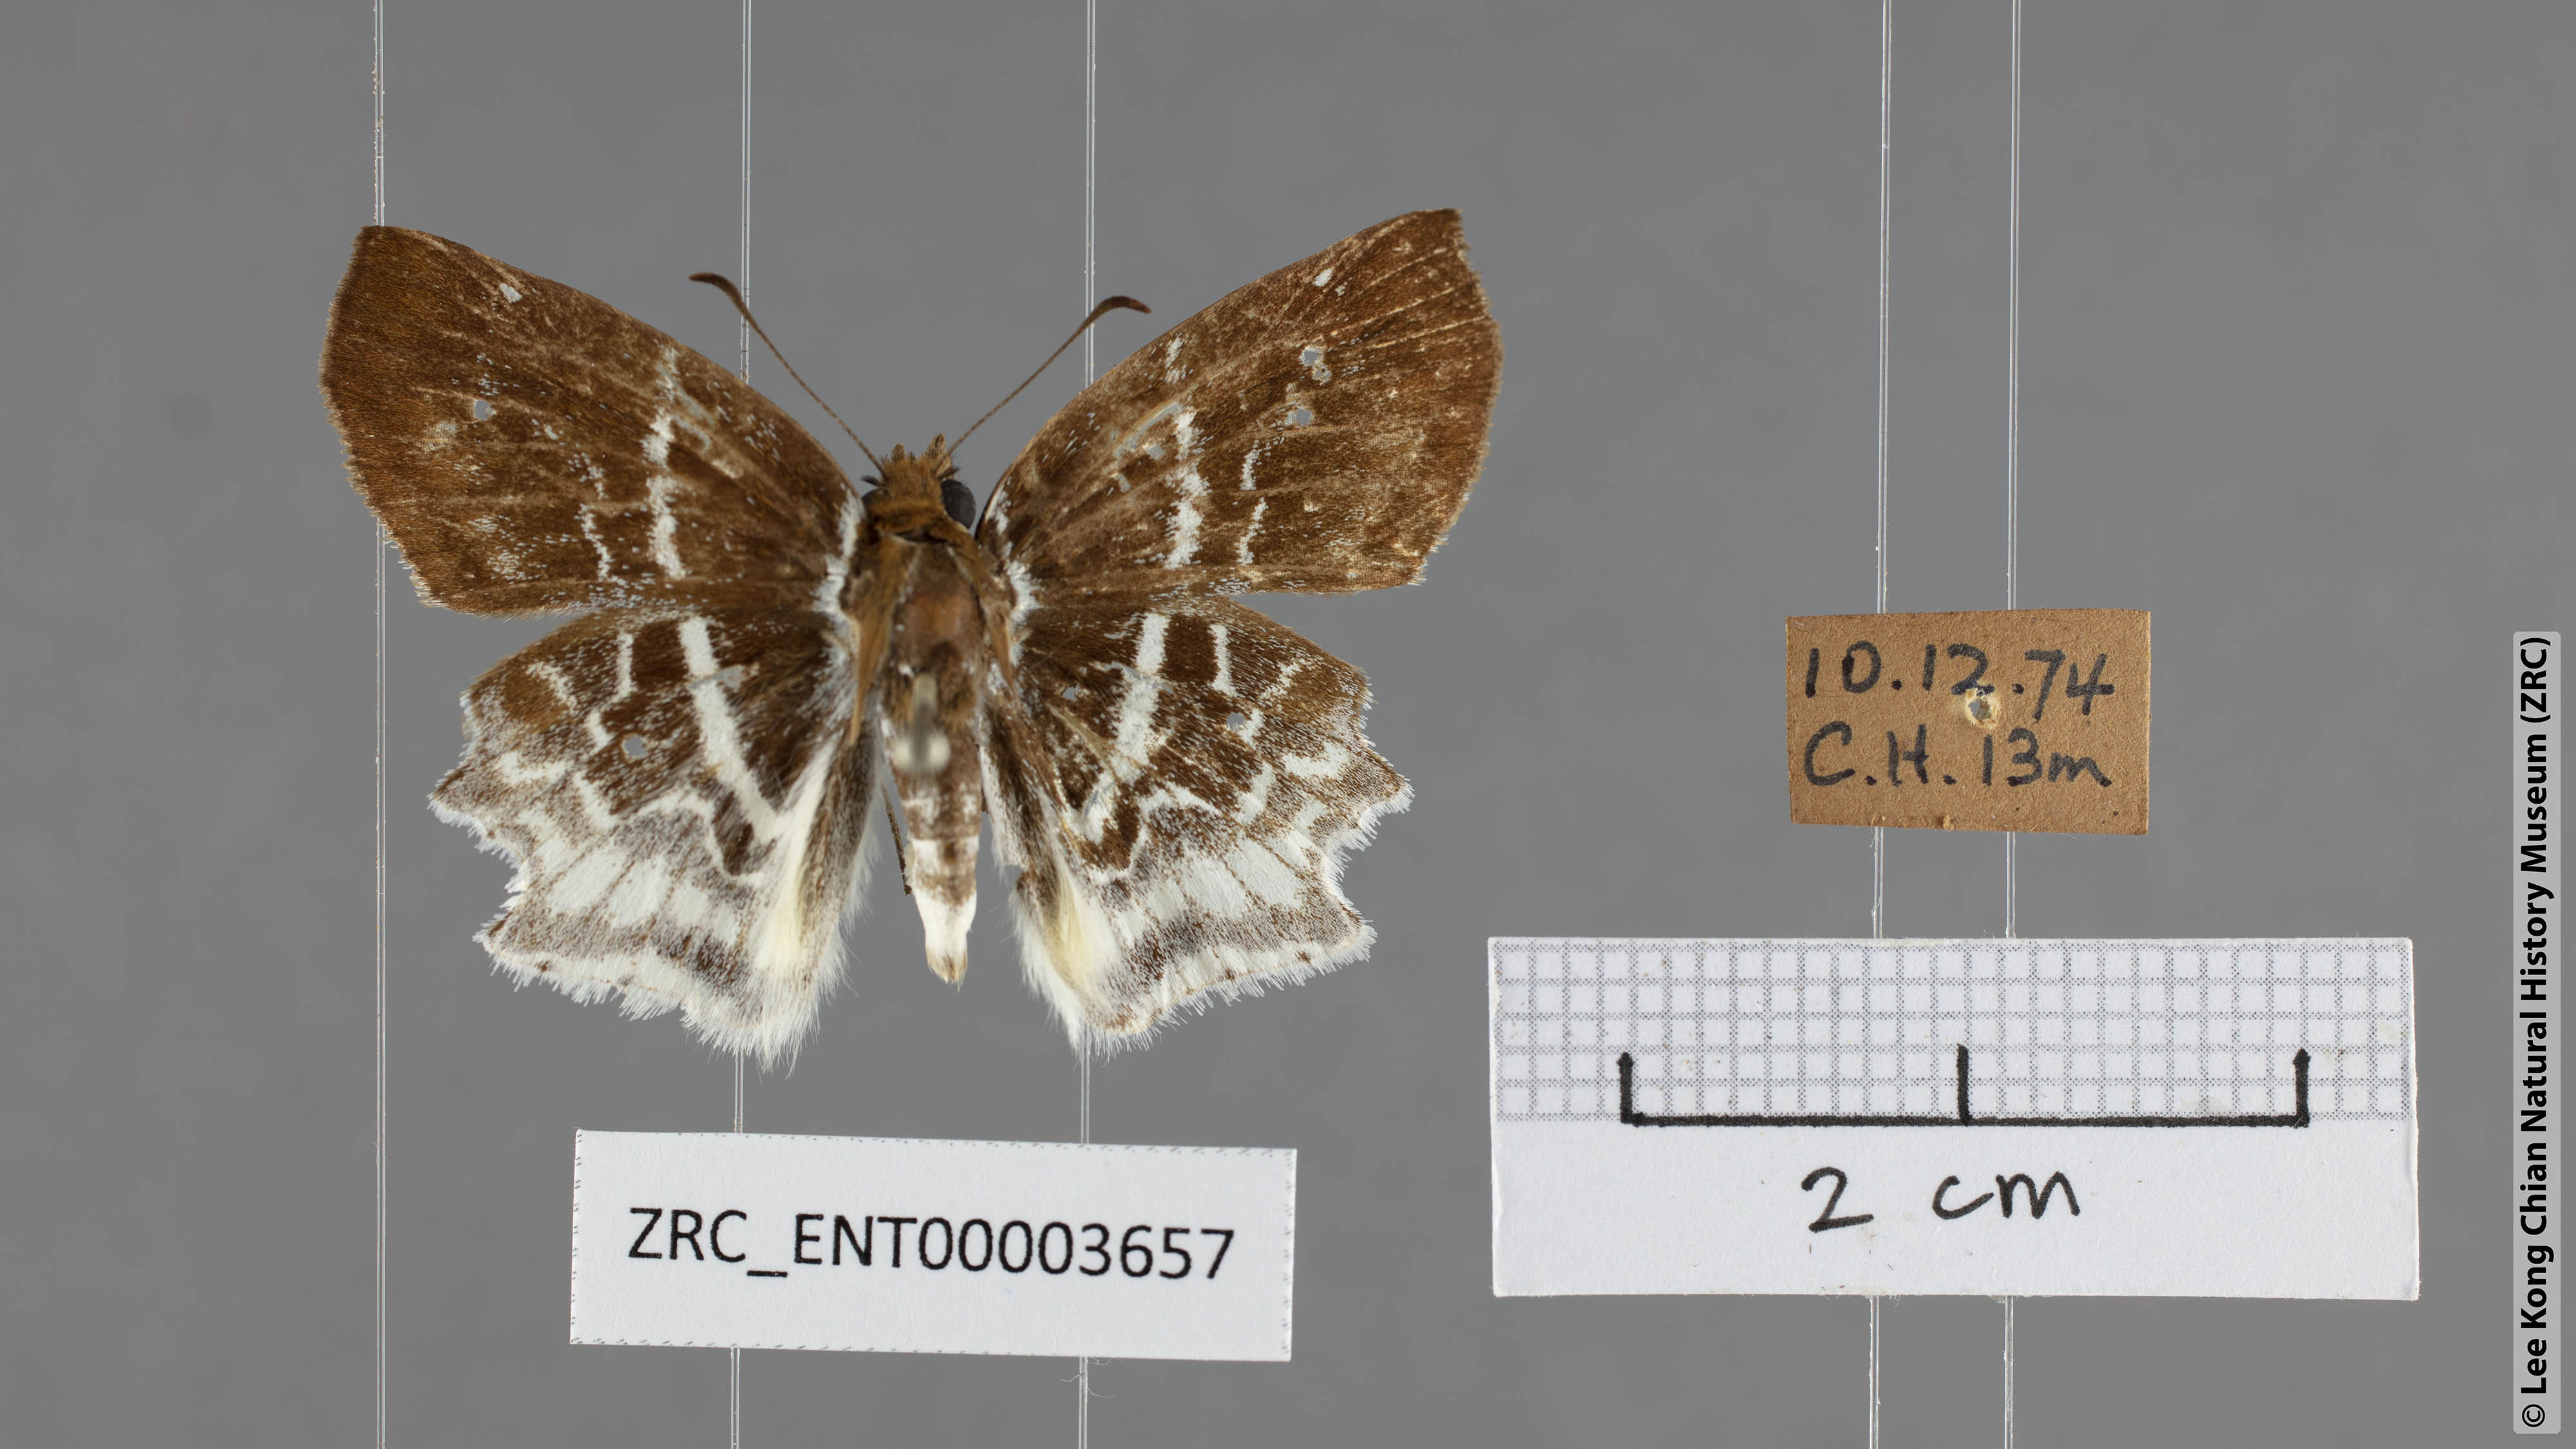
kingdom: Animalia
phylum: Arthropoda
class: Insecta
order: Lepidoptera
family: Hesperiidae
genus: Odontoptilum
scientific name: Odontoptilum pygela
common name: Banded angle
